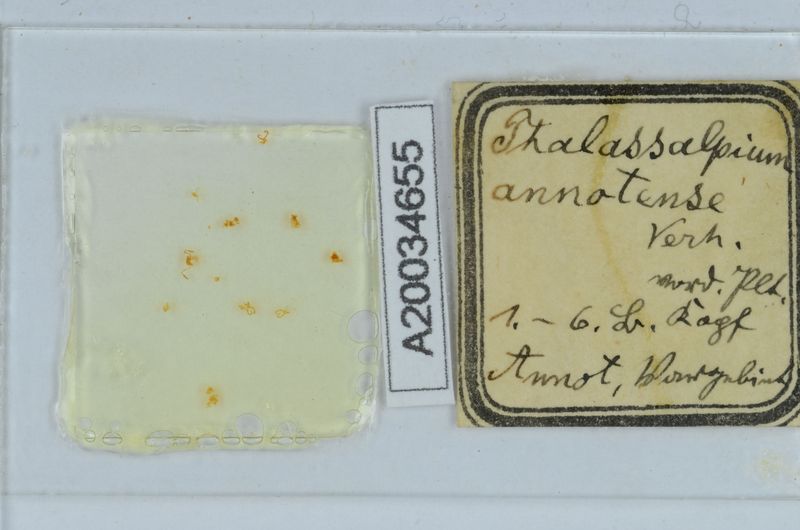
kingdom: Animalia
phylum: Arthropoda
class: Diplopoda
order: Chordeumatida
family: Craspedosomatidae
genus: Ochogona
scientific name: Ochogona
